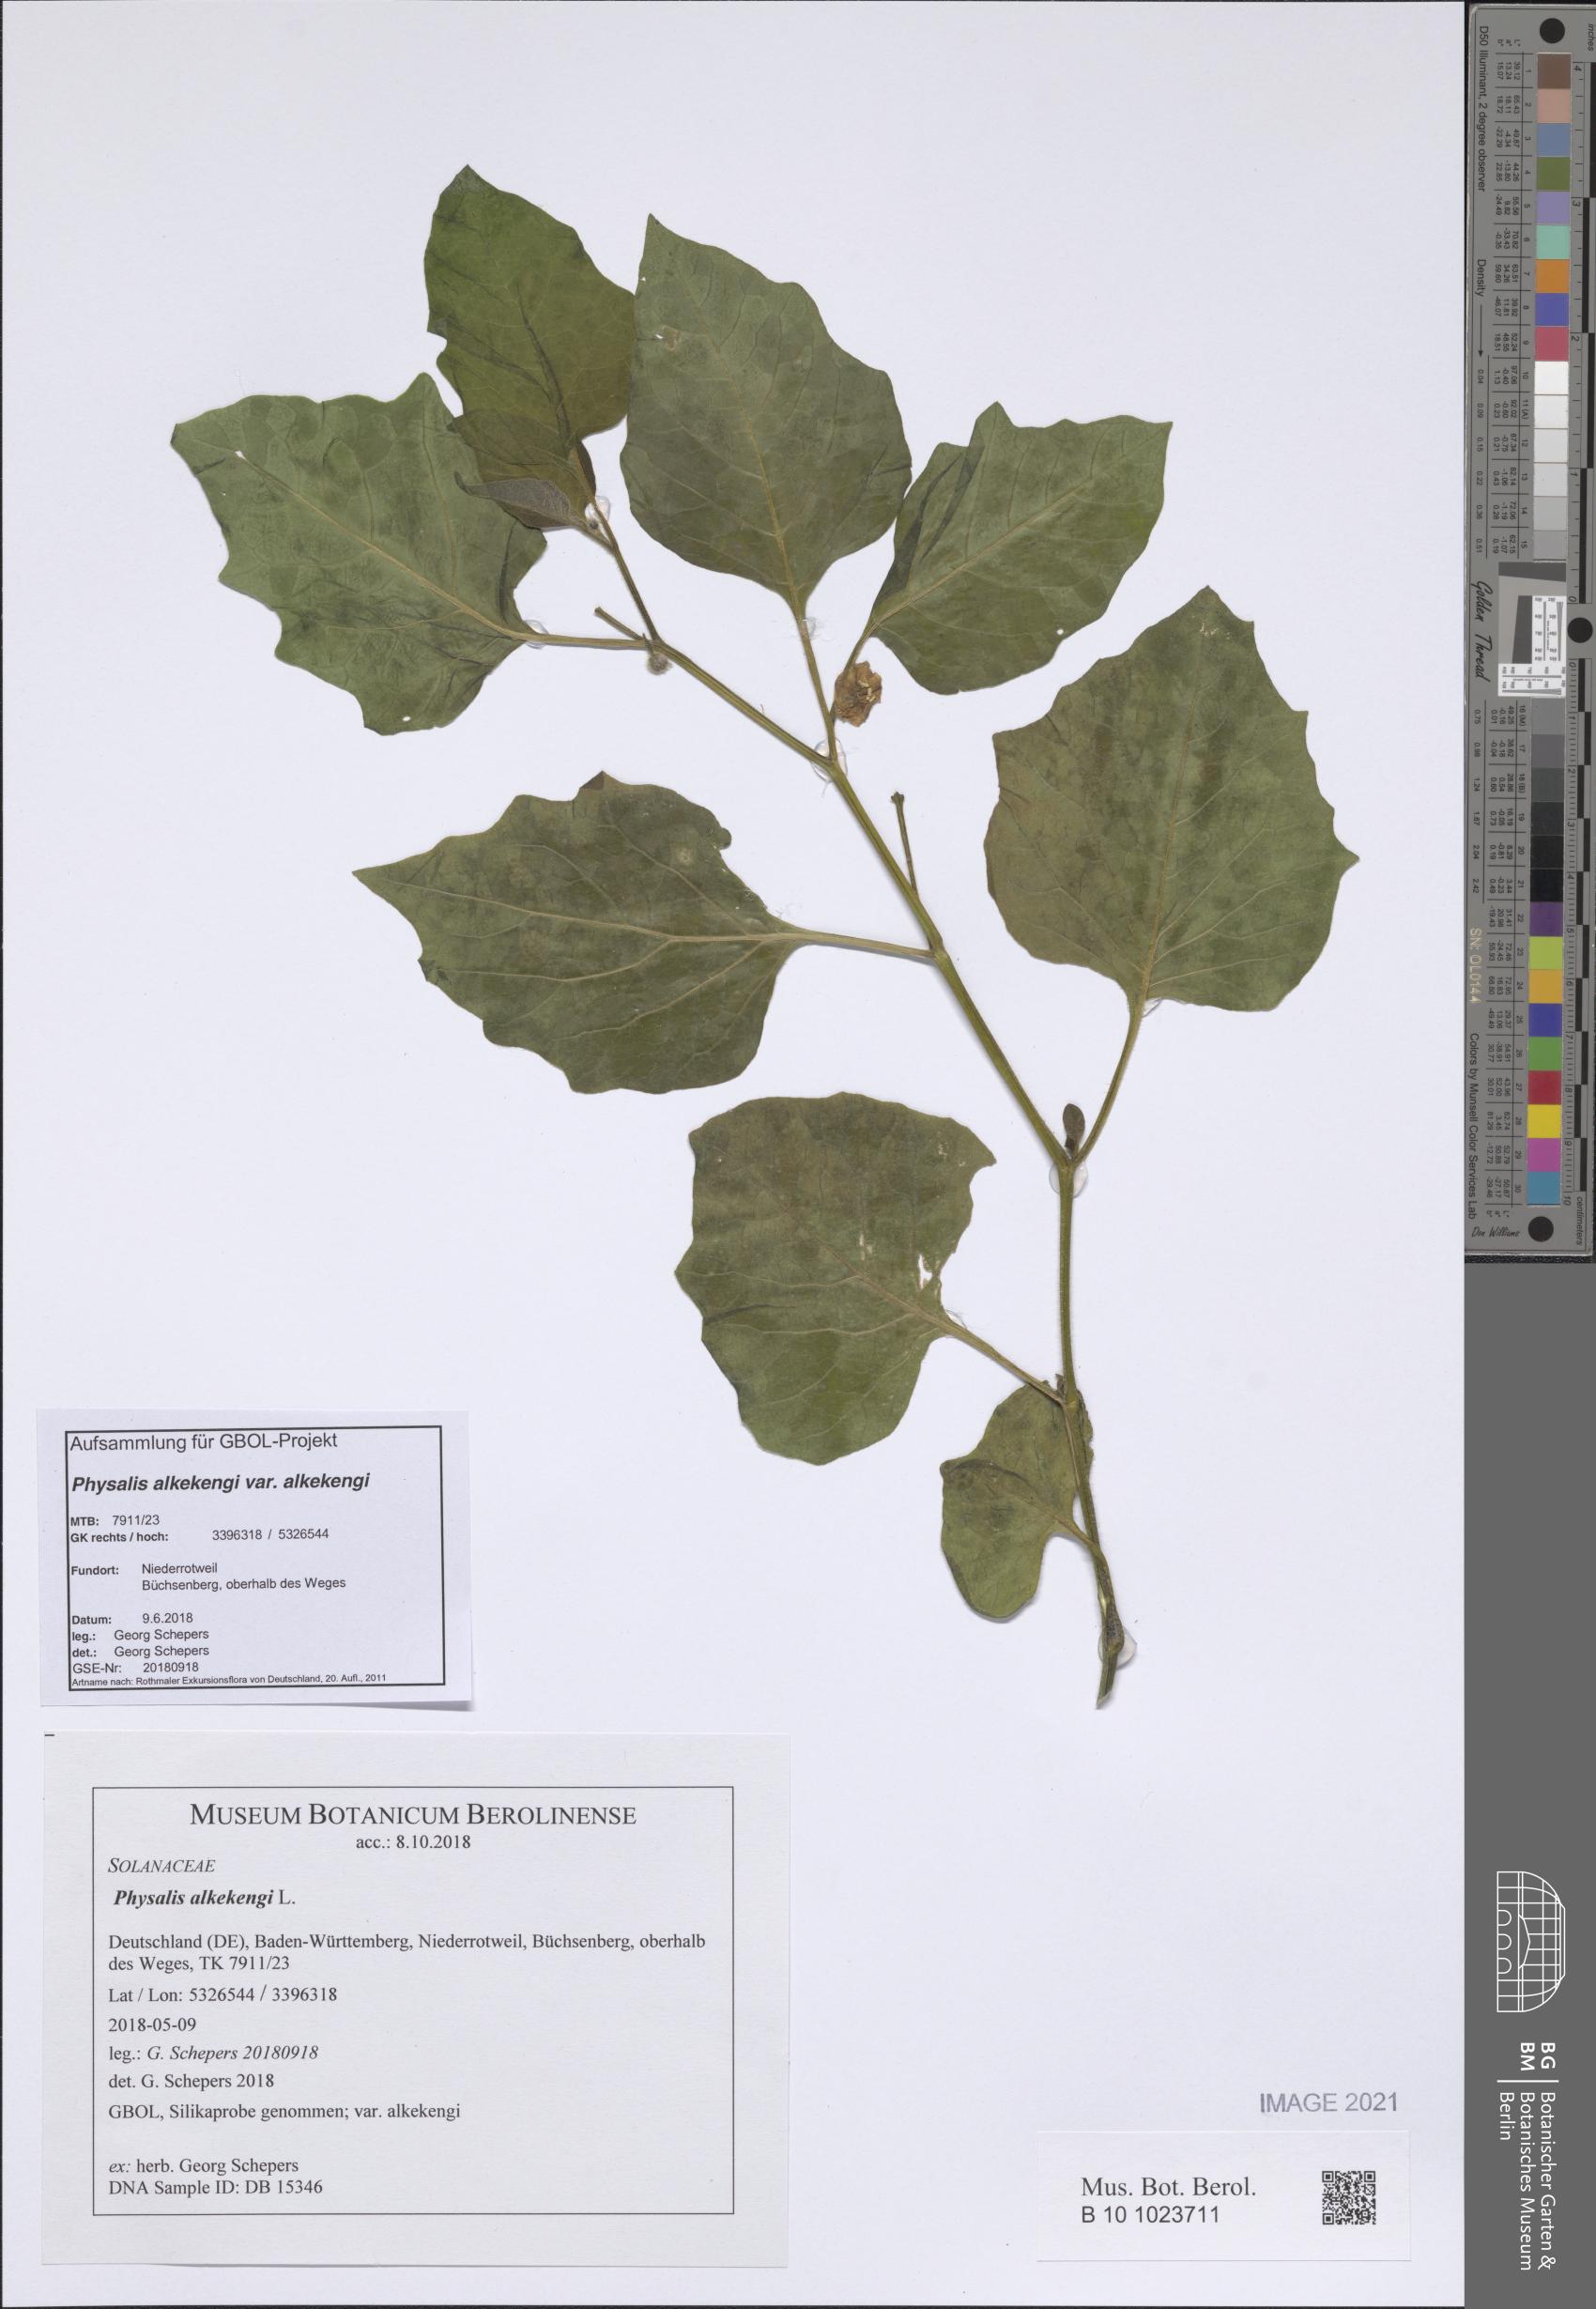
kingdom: Plantae
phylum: Tracheophyta
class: Magnoliopsida
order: Solanales
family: Solanaceae
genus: Alkekengi
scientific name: Alkekengi officinarum
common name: Japanese-lantern
